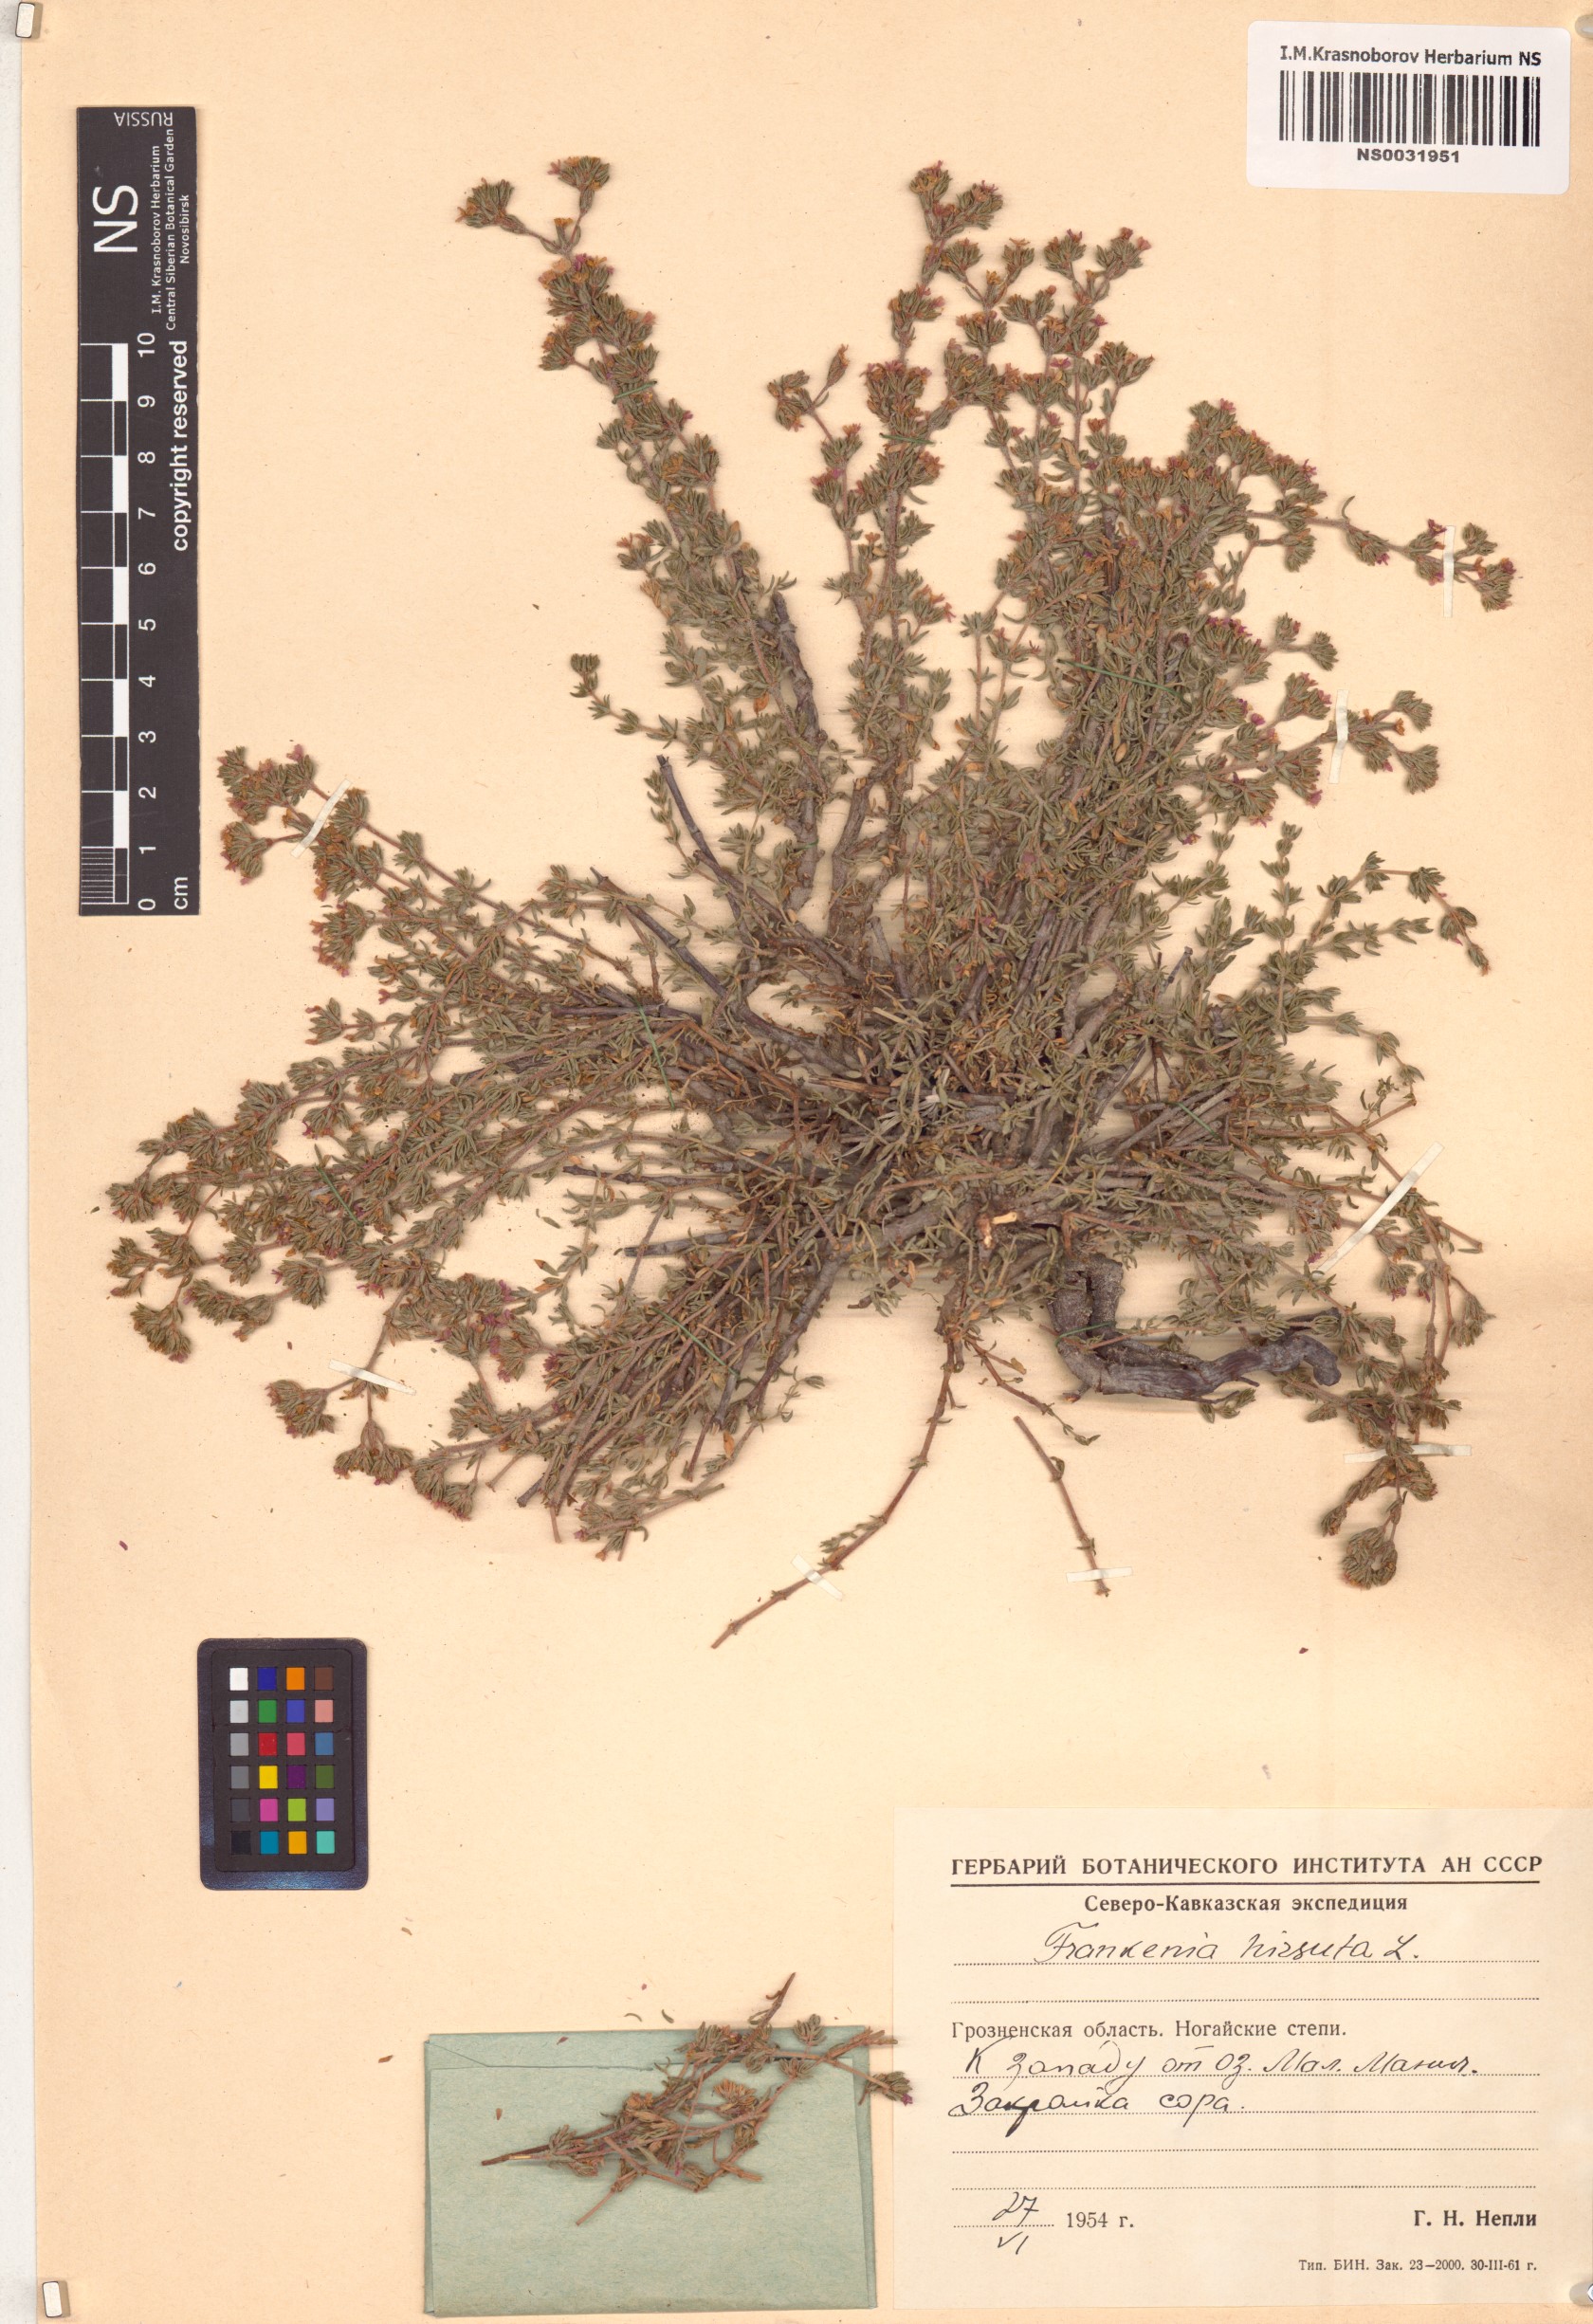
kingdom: Plantae
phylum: Tracheophyta
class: Magnoliopsida
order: Caryophyllales
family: Frankeniaceae
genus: Frankenia
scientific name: Frankenia hirsuta
